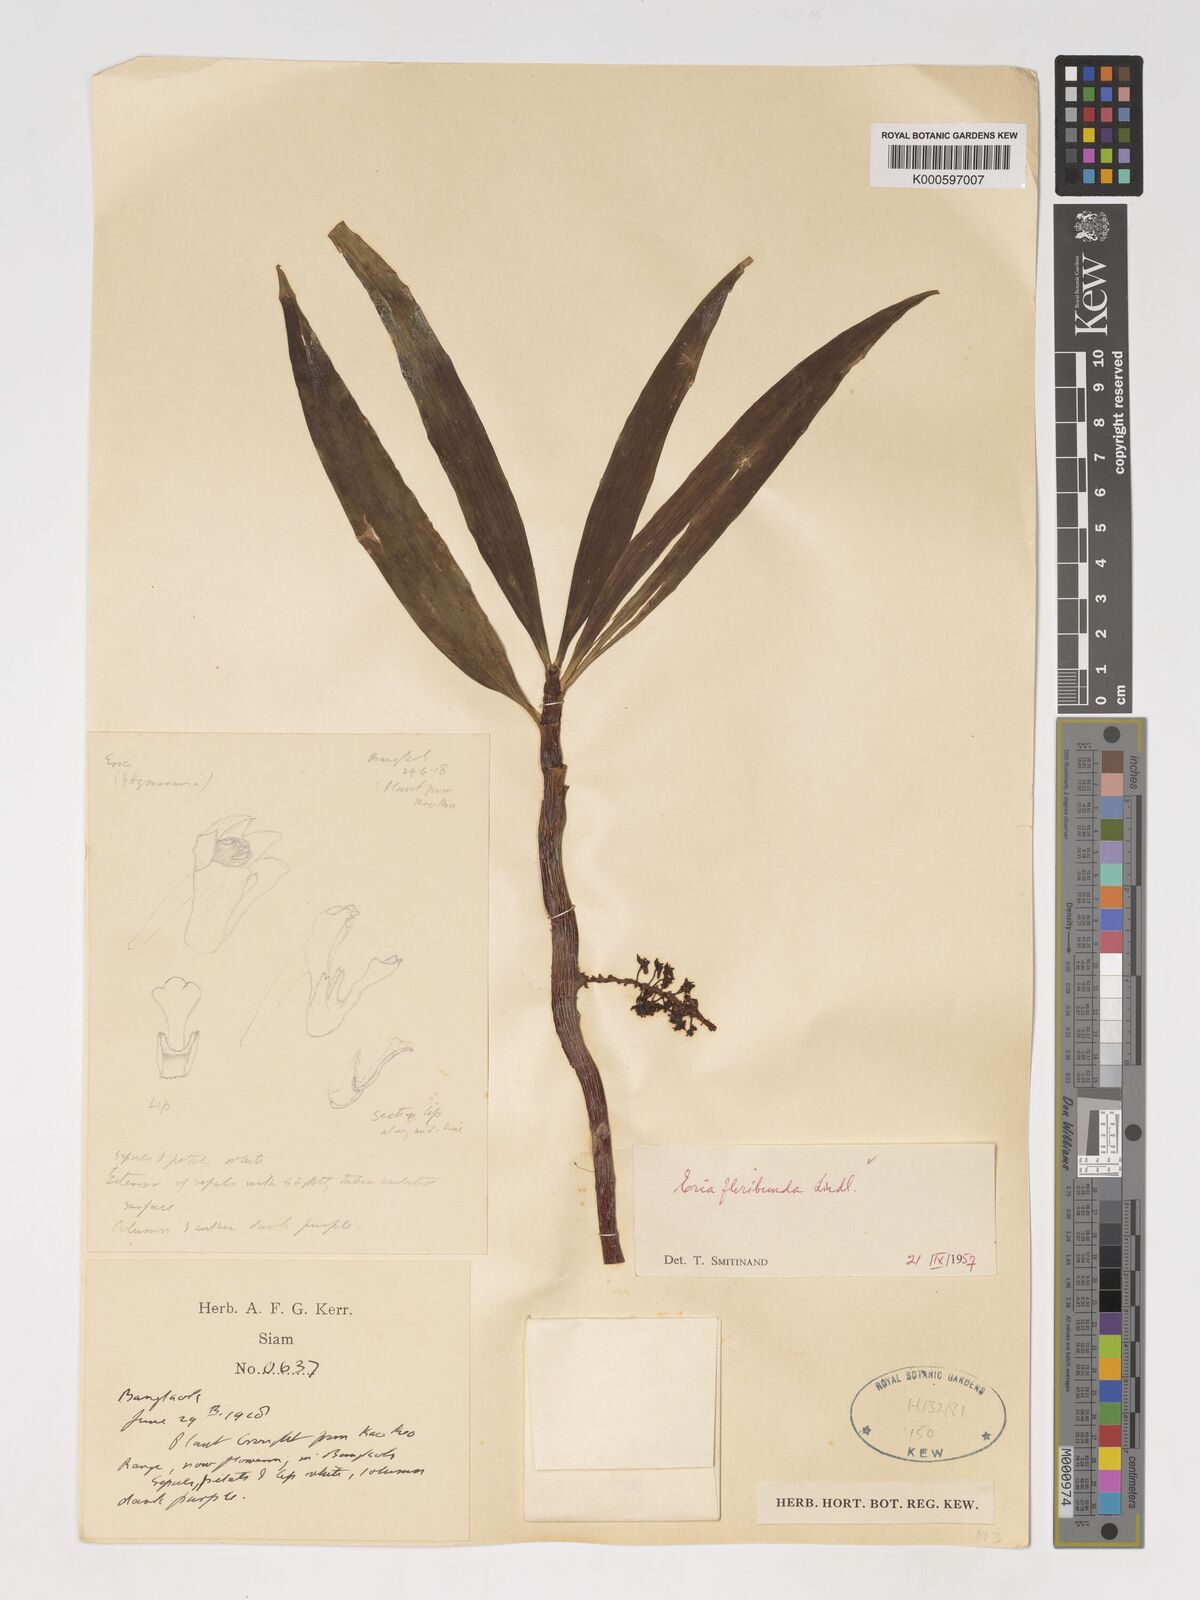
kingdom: Plantae
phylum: Tracheophyta
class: Liliopsida
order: Asparagales
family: Orchidaceae
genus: Pinalia
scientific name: Pinalia floribunda
